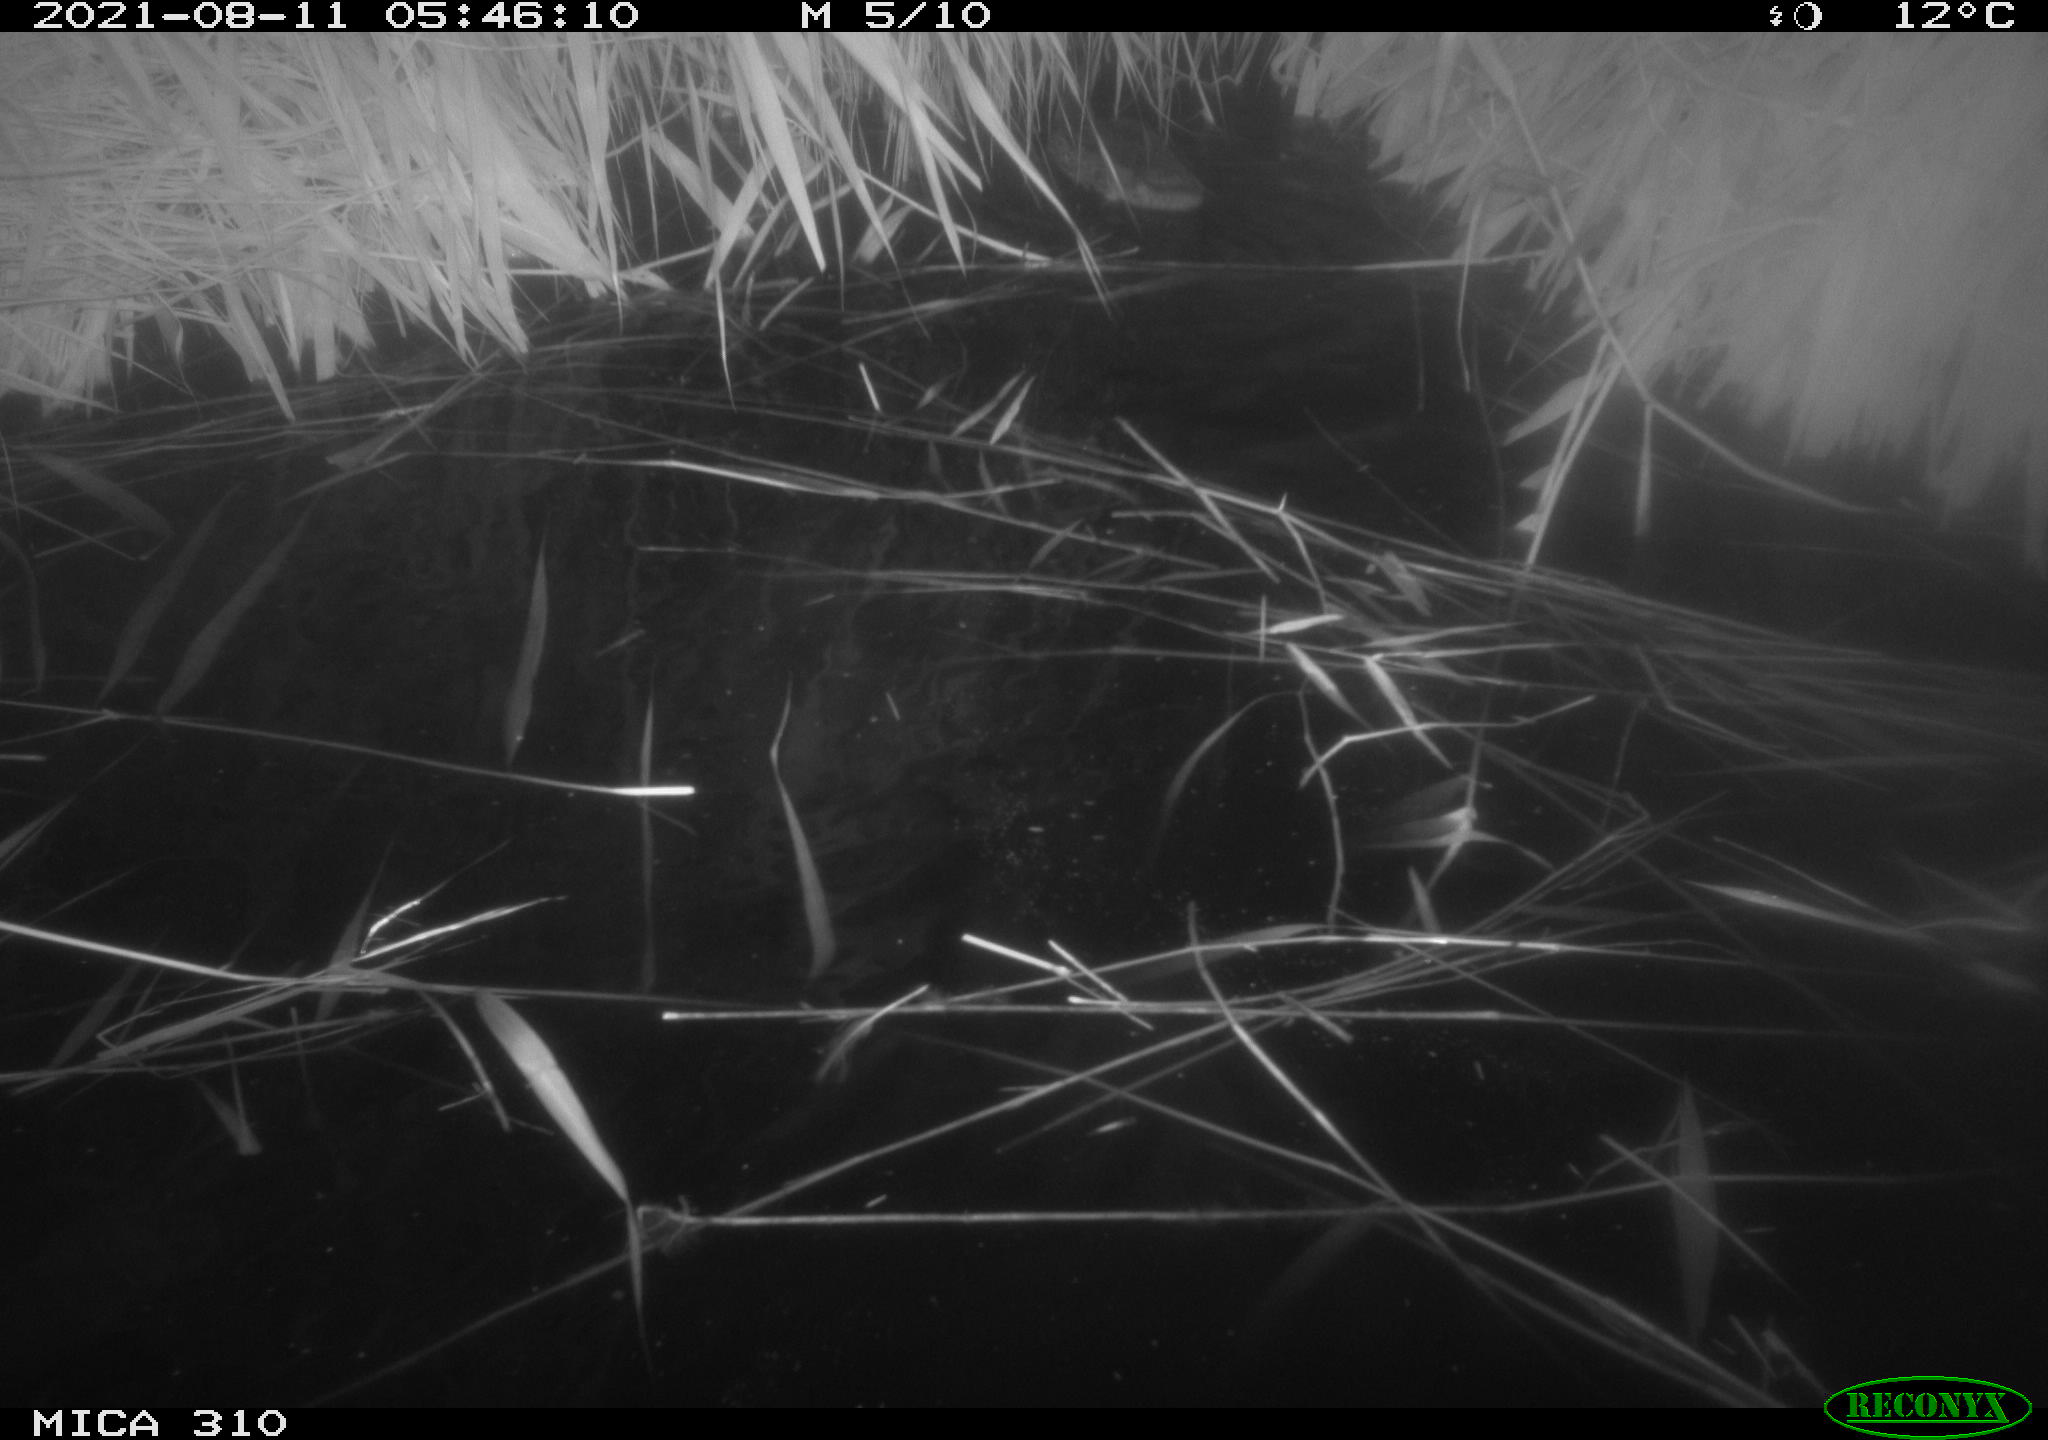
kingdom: Animalia
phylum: Chordata
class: Aves
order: Anseriformes
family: Anatidae
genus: Anas
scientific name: Anas platyrhynchos
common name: Mallard
